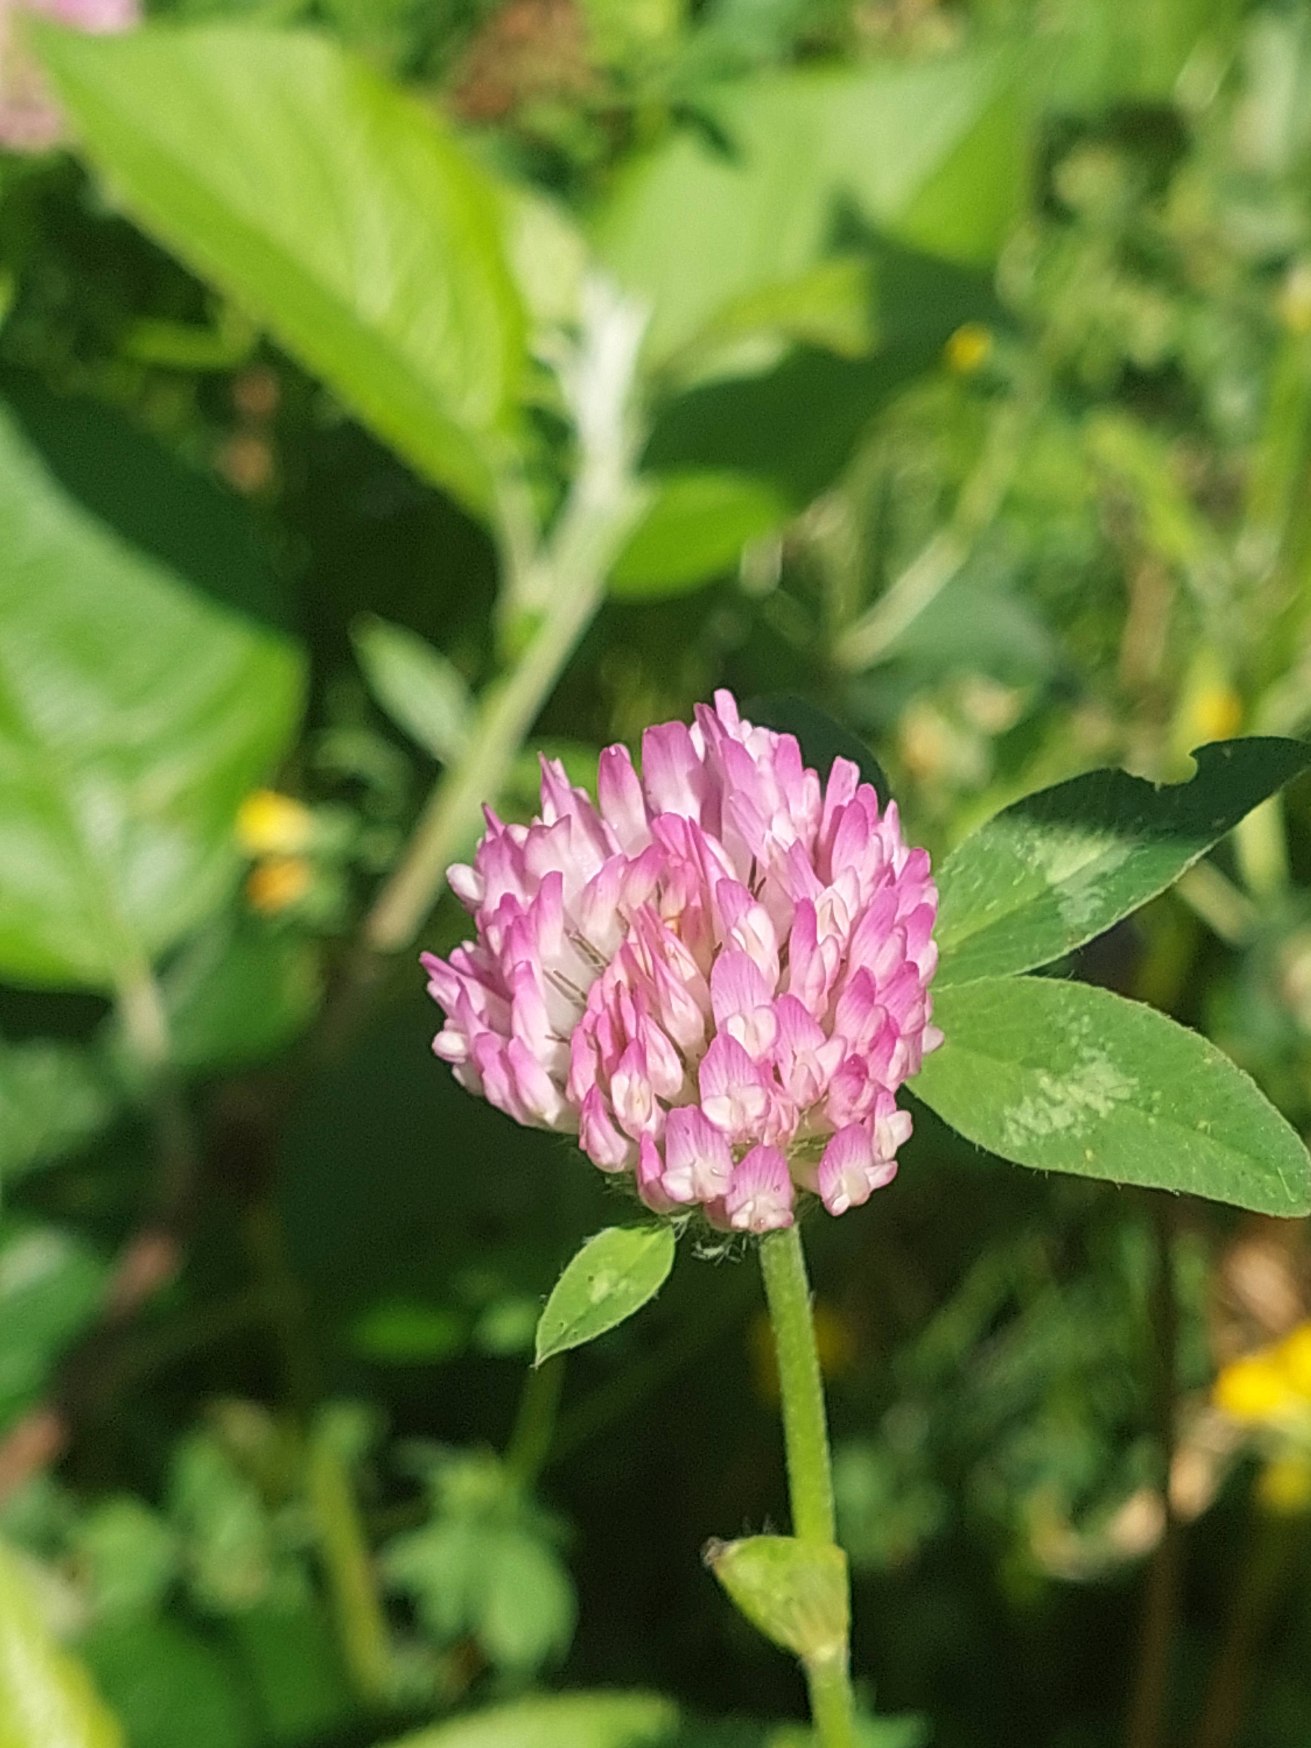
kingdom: Plantae
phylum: Tracheophyta
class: Magnoliopsida
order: Fabales
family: Fabaceae
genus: Trifolium
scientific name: Trifolium pratense
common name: Rød-kløver
